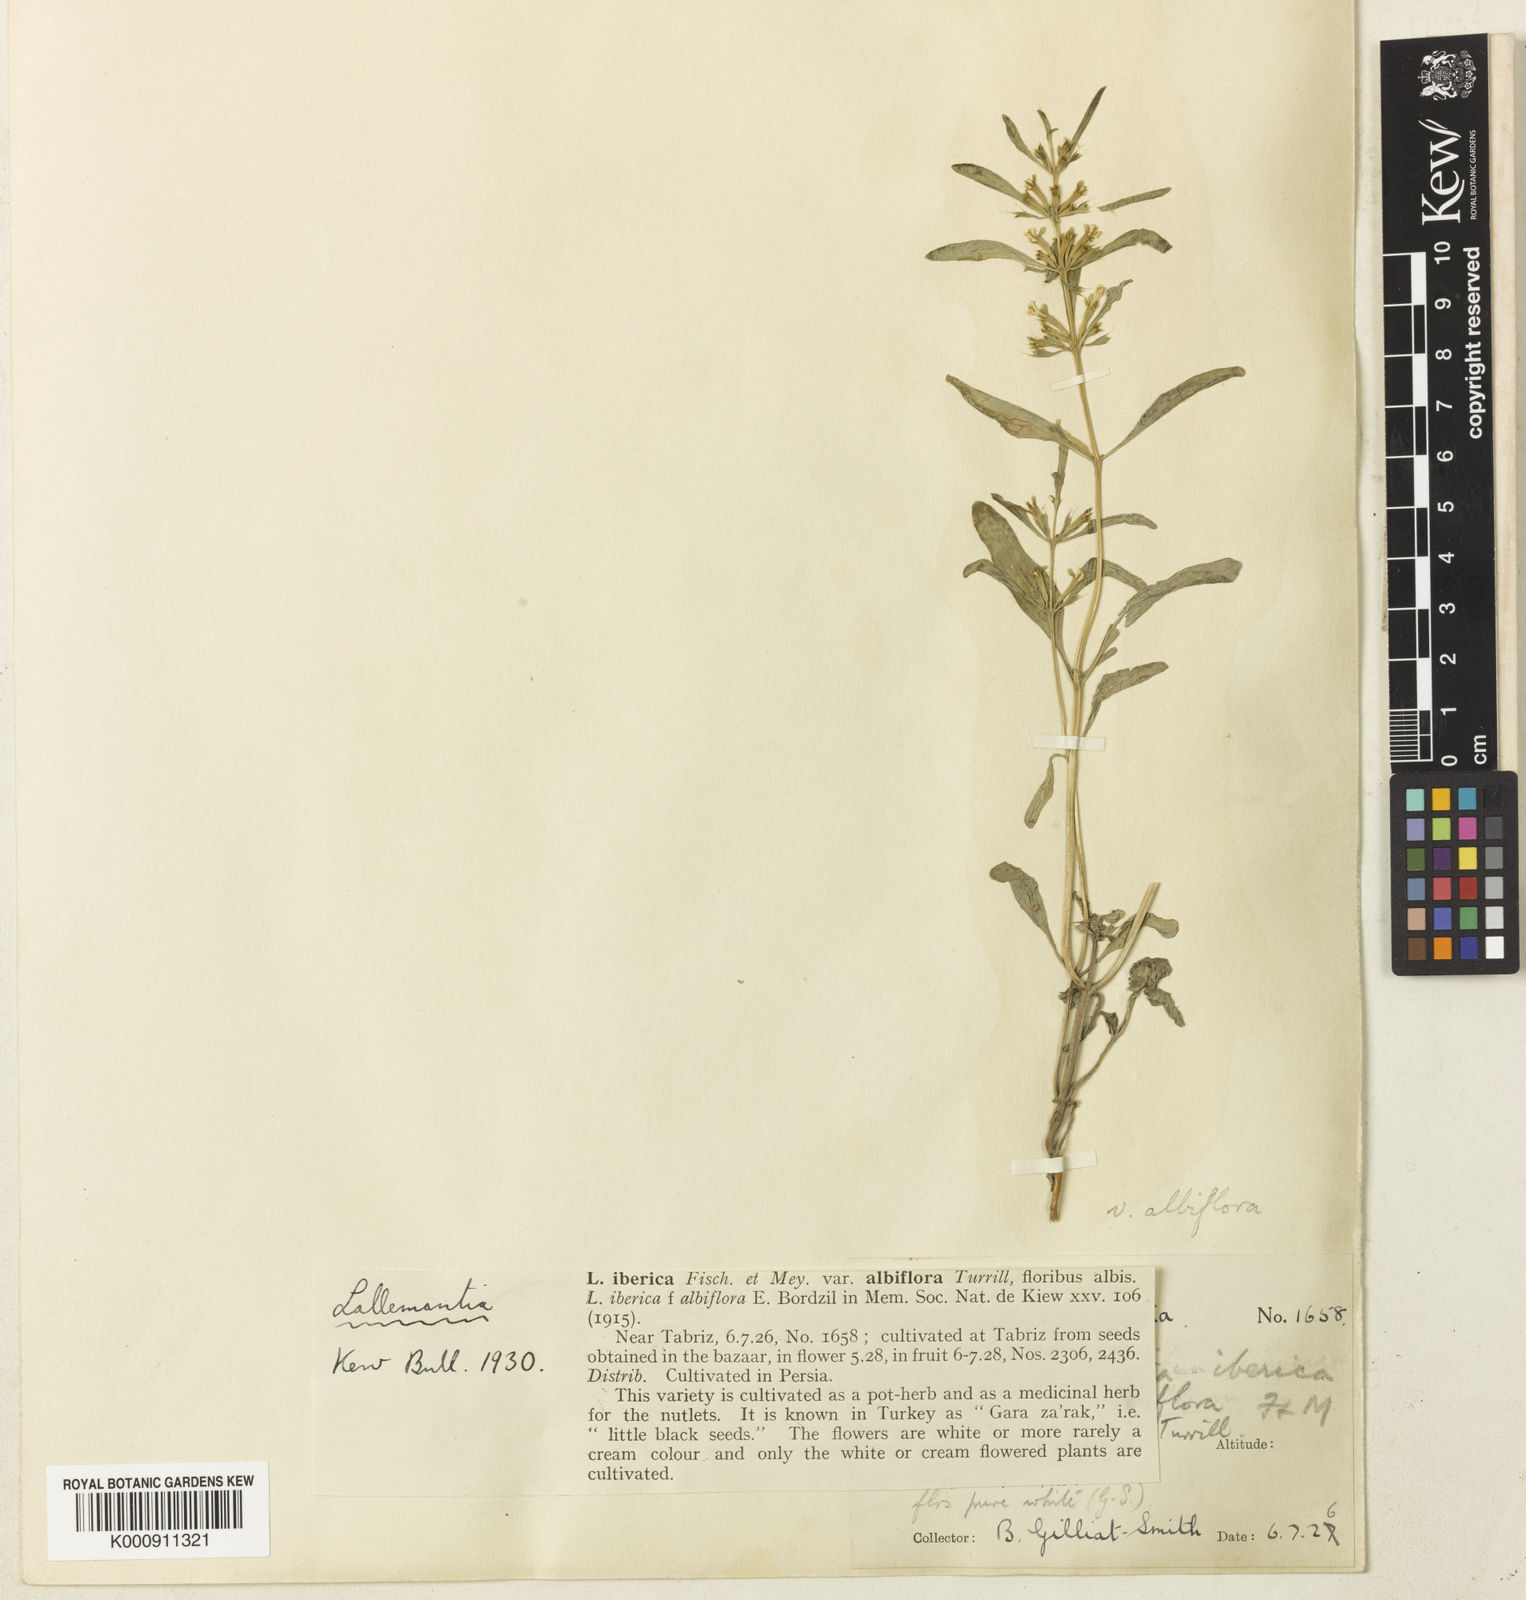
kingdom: Plantae
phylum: Tracheophyta
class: Magnoliopsida
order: Lamiales
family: Lamiaceae
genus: Lallemantia
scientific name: Lallemantia iberica
